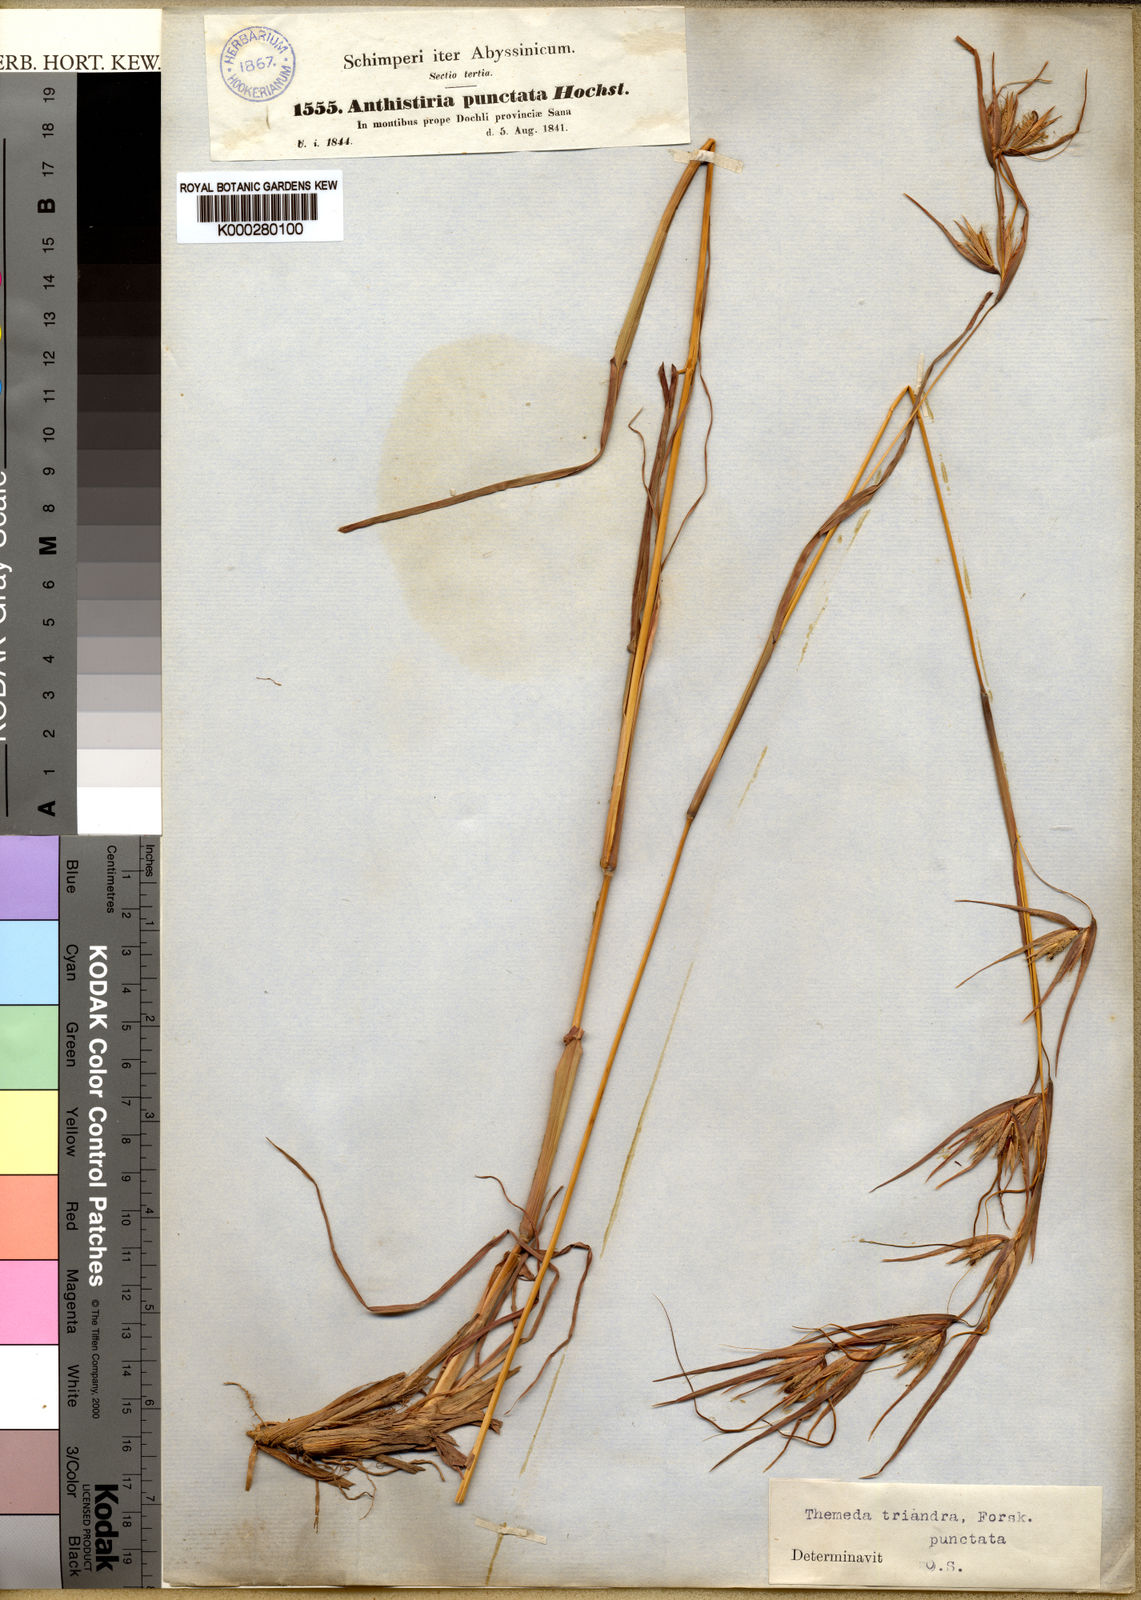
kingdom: Plantae
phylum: Tracheophyta
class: Liliopsida
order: Poales
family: Poaceae
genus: Themeda
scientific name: Themeda triandra
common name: Kangaroo grass
